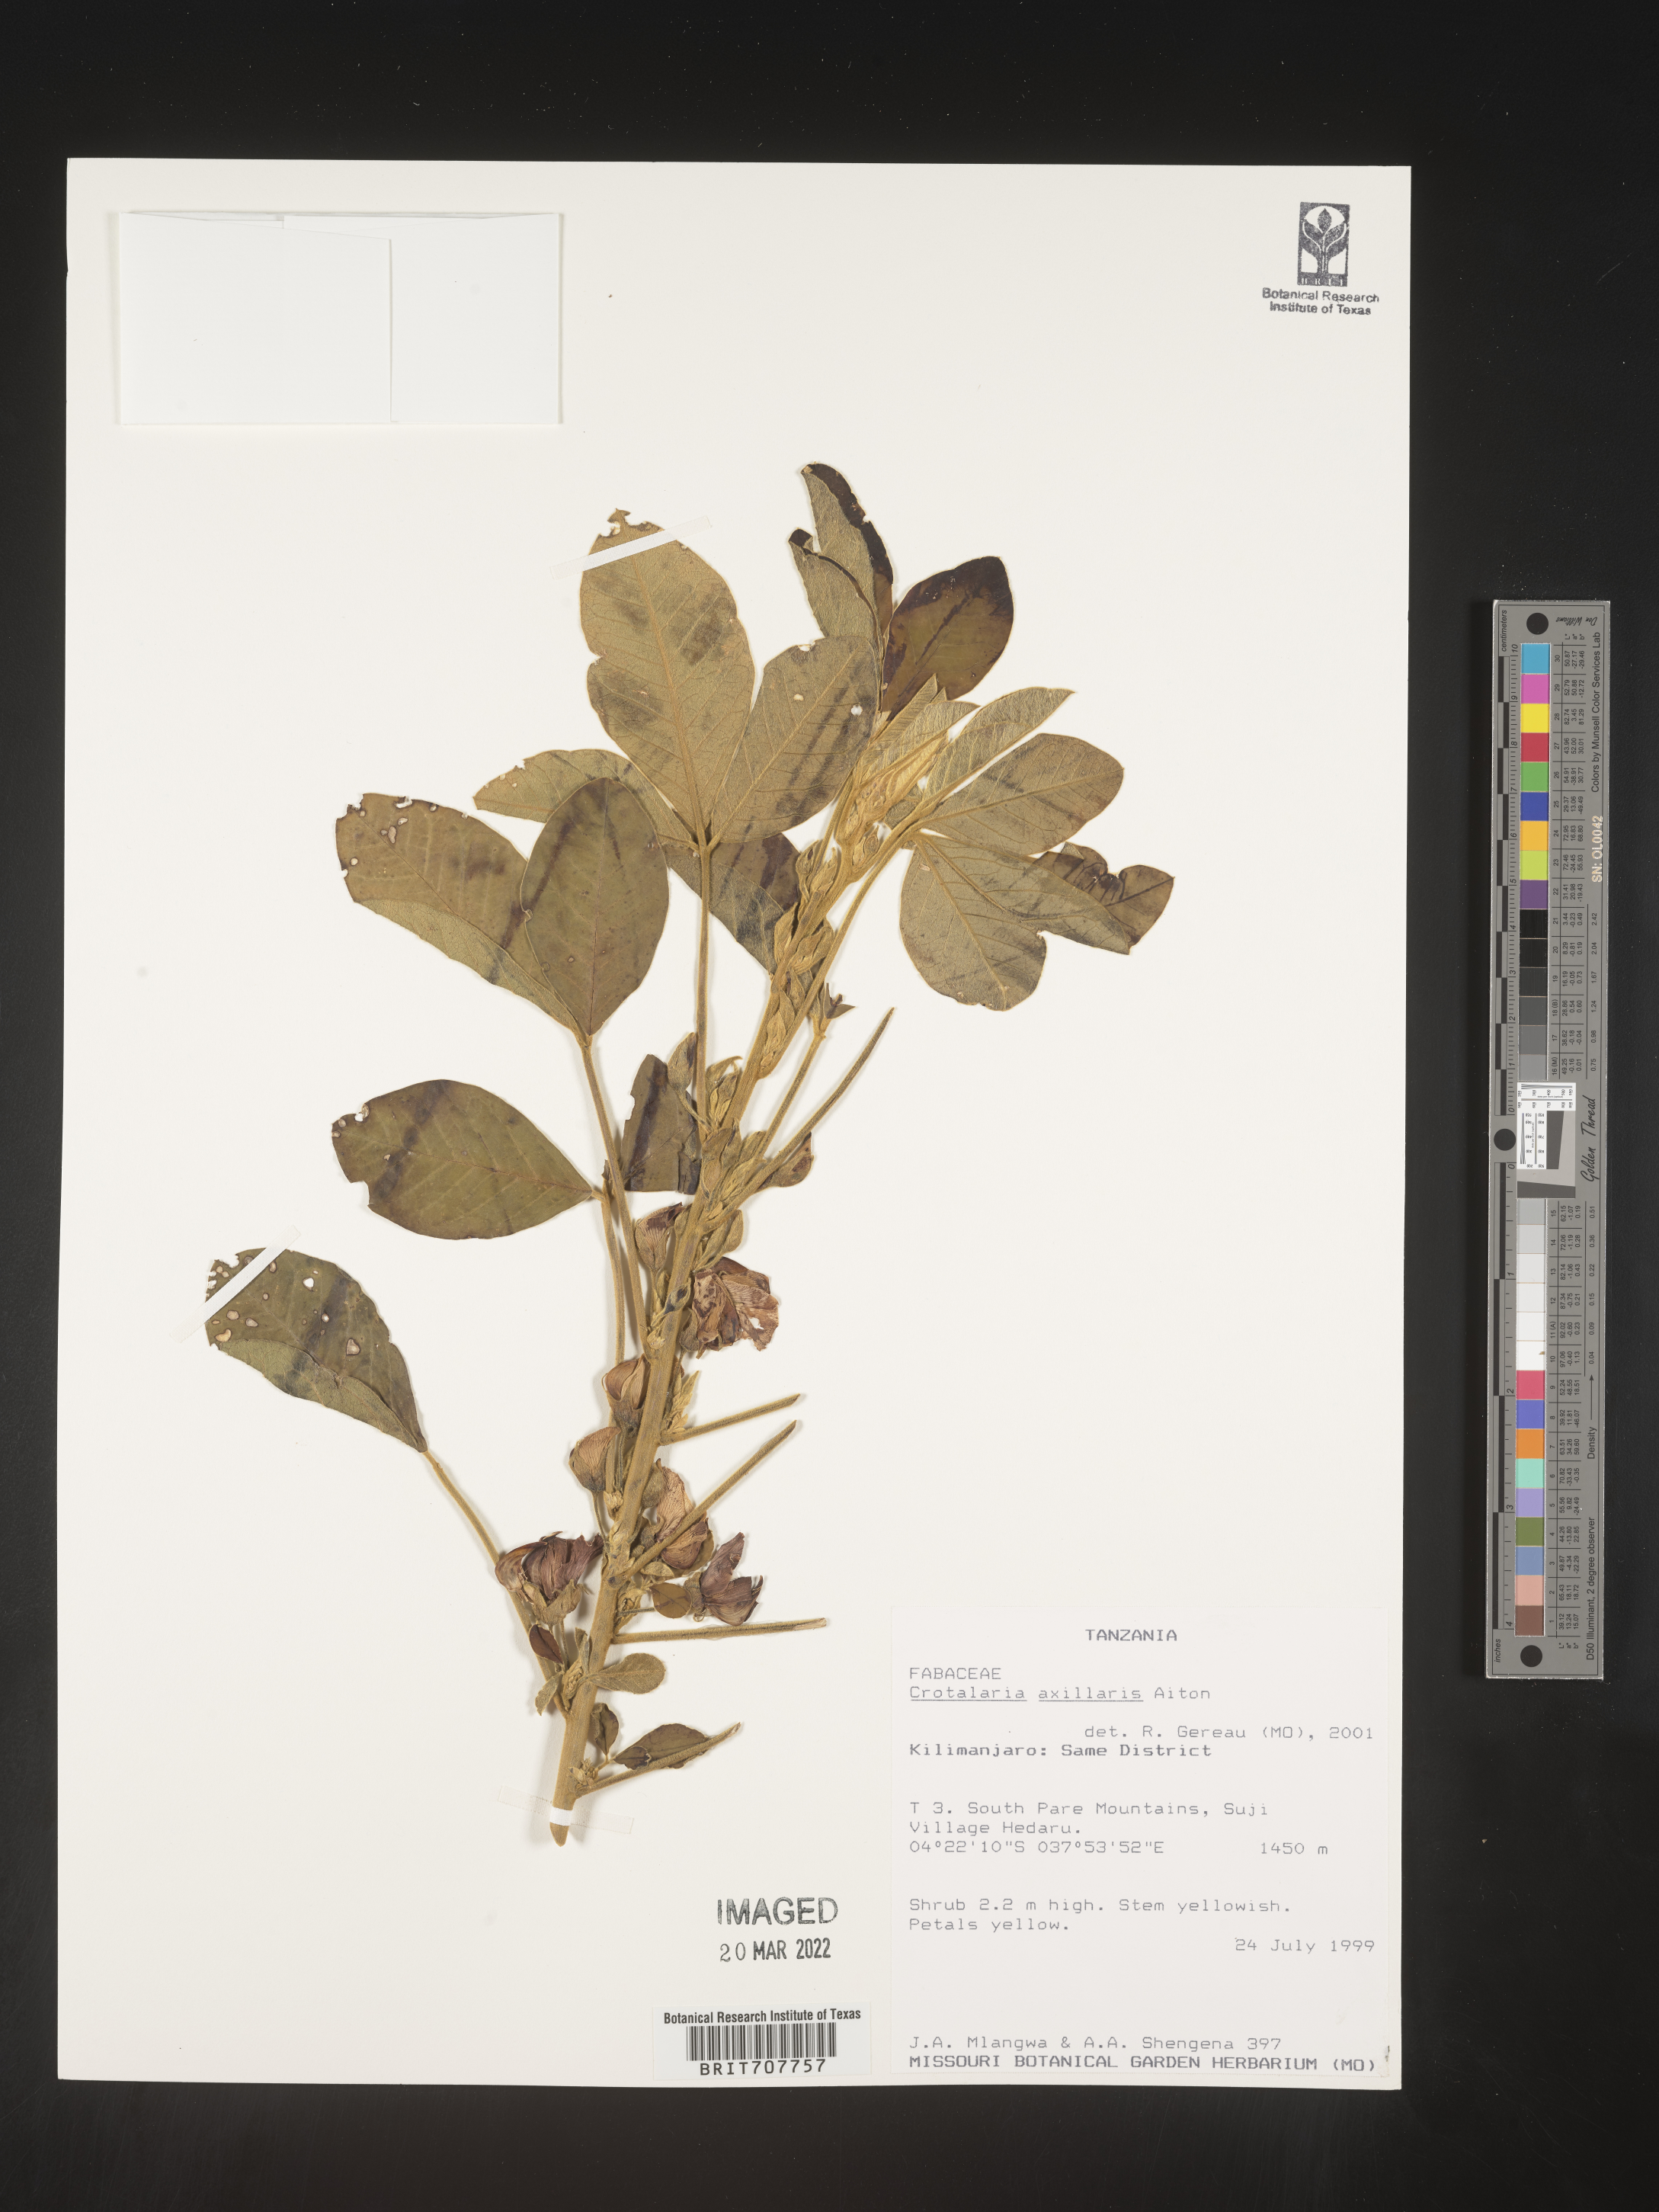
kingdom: Plantae
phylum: Tracheophyta
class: Magnoliopsida
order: Fabales
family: Fabaceae
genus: Crotalaria
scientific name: Crotalaria
